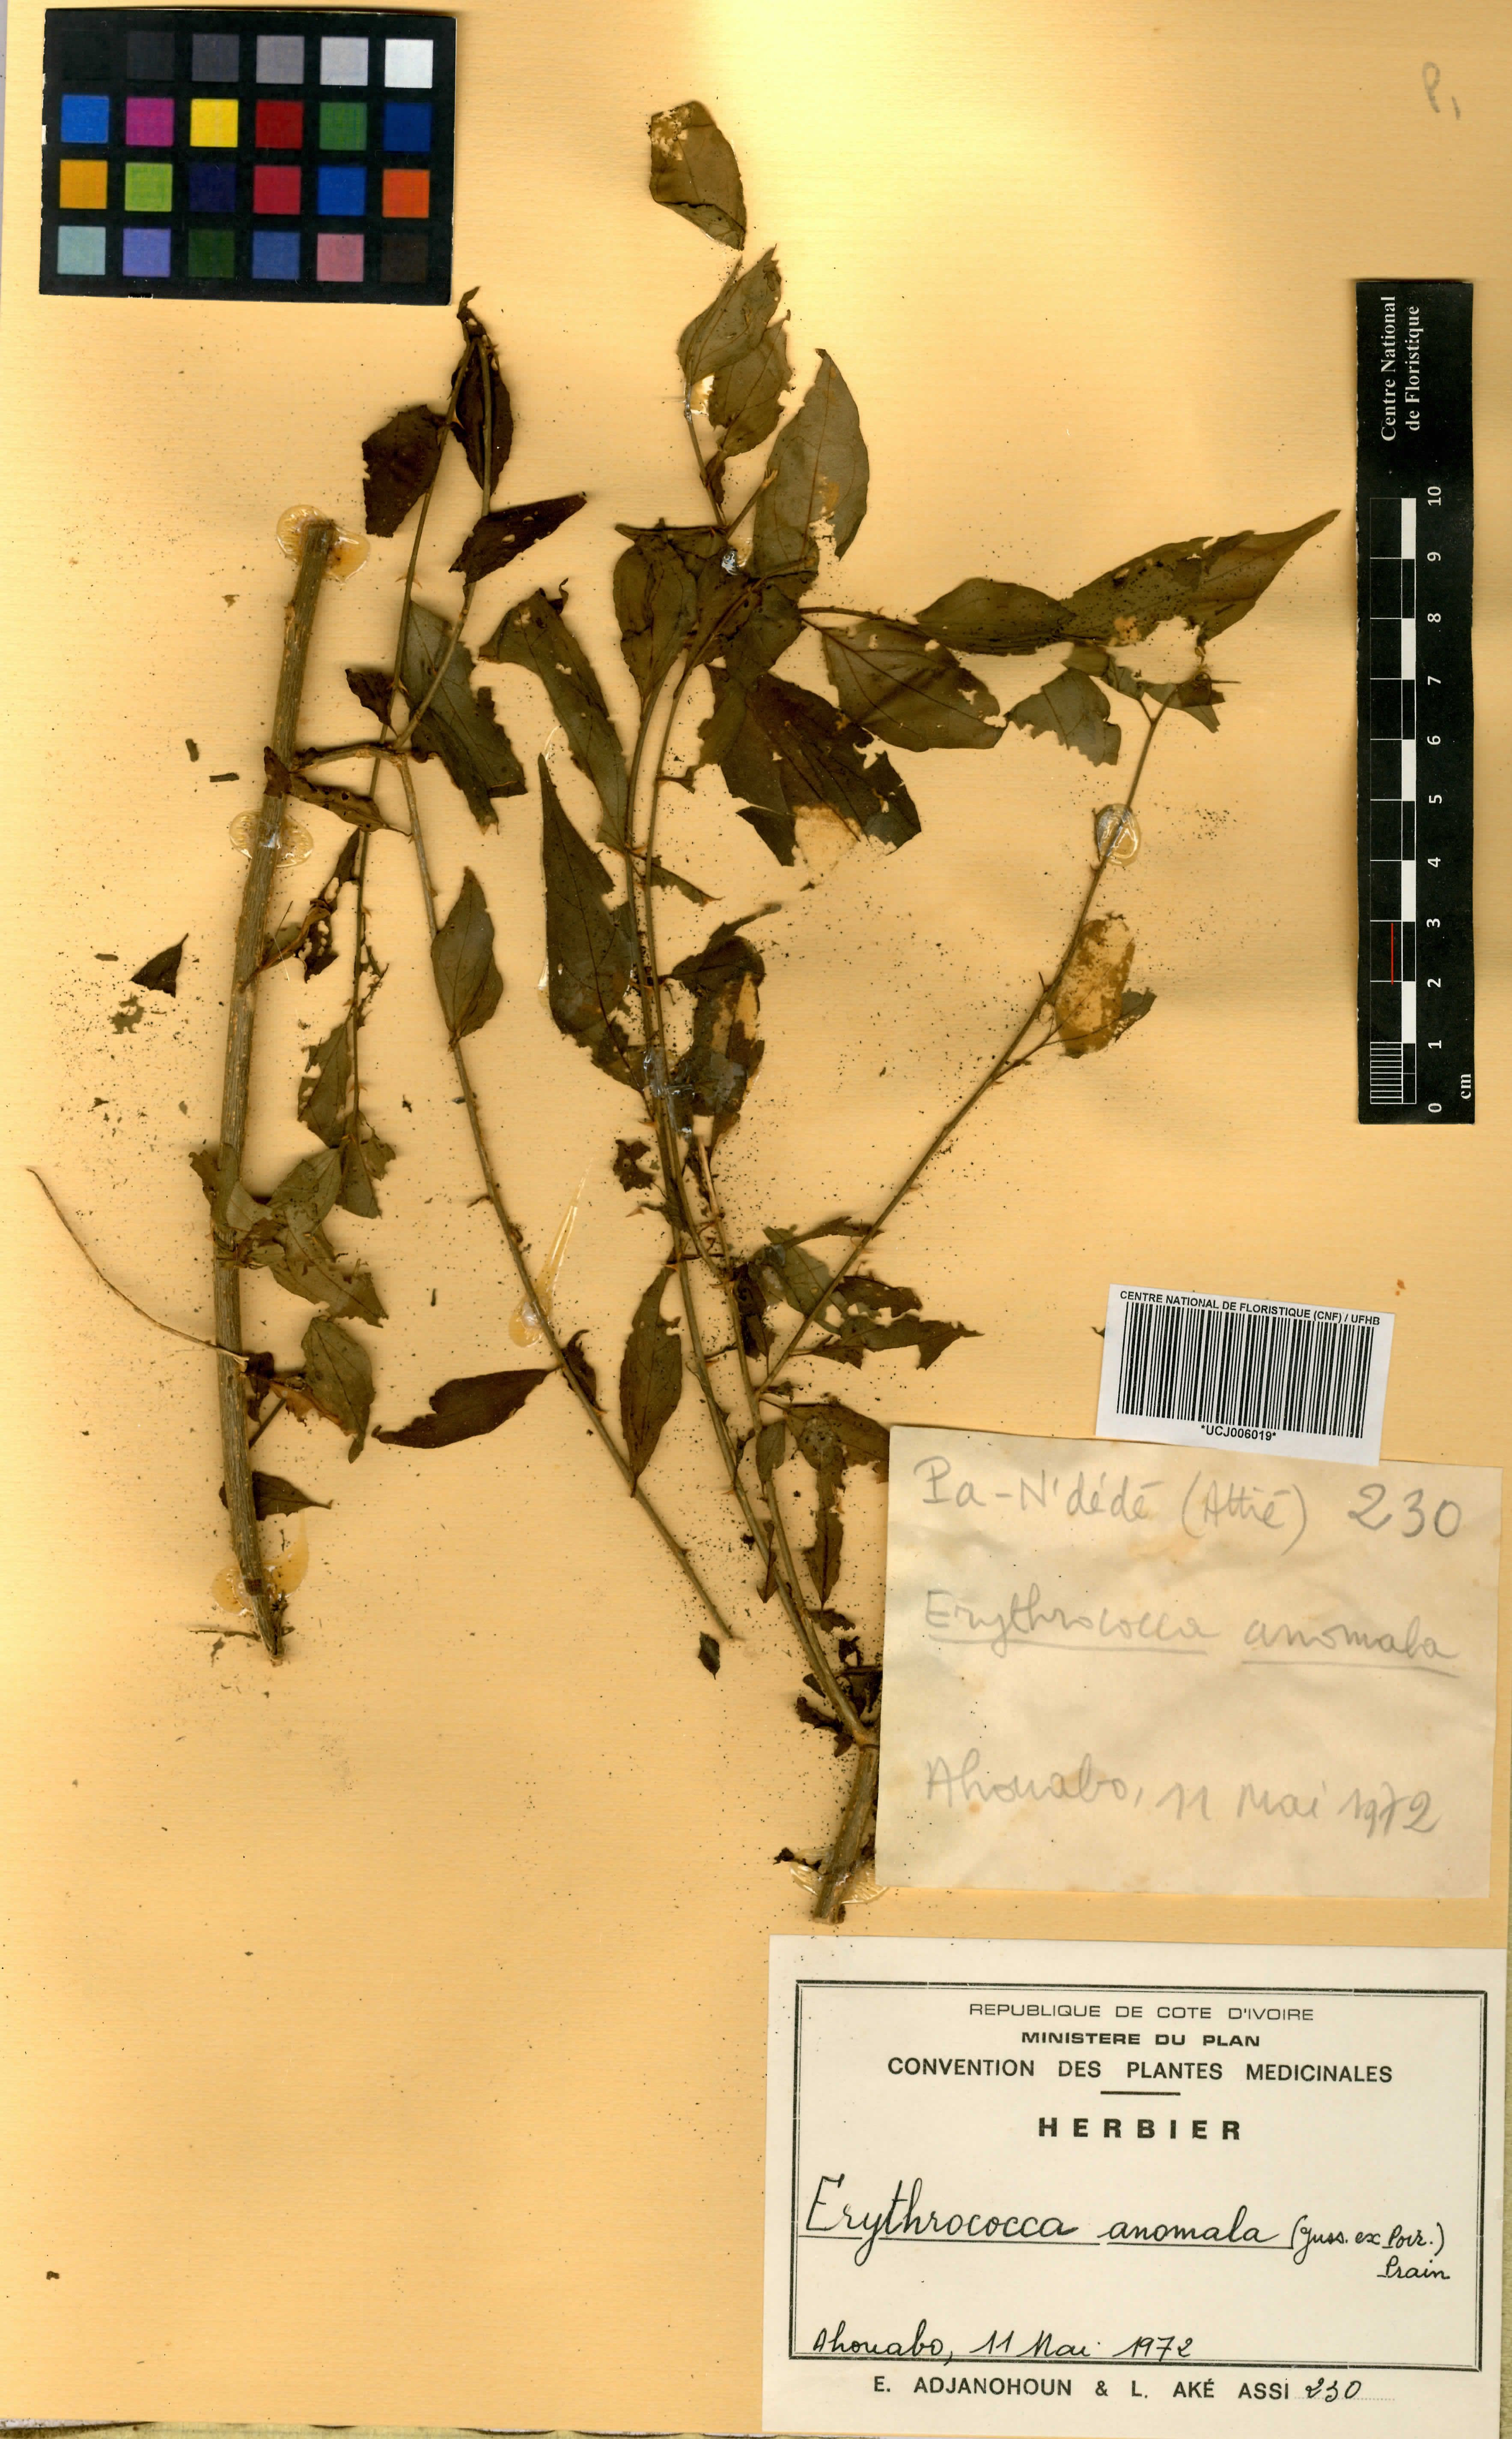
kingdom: Plantae
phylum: Tracheophyta
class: Magnoliopsida
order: Malpighiales
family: Euphorbiaceae
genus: Erythrococca
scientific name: Erythrococca anomala
